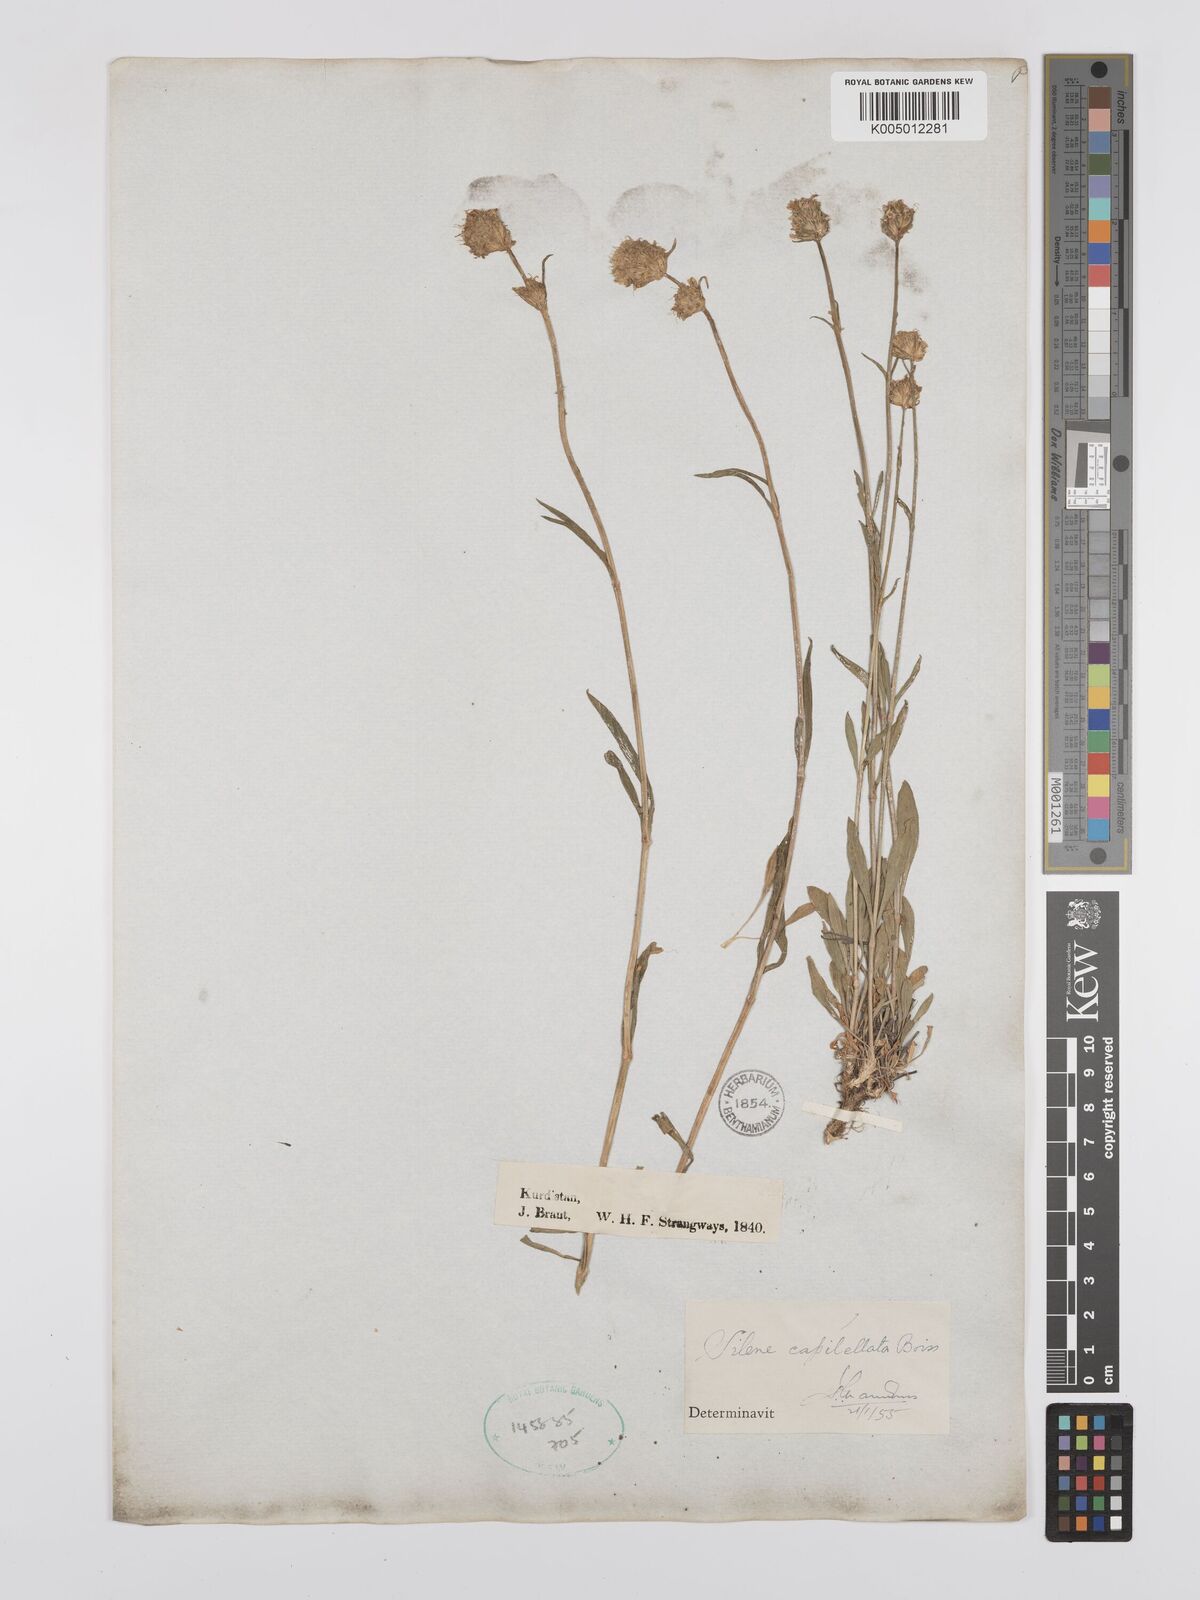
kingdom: Plantae
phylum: Tracheophyta
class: Magnoliopsida
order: Caryophyllales
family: Caryophyllaceae
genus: Silene
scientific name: Silene capitellata
